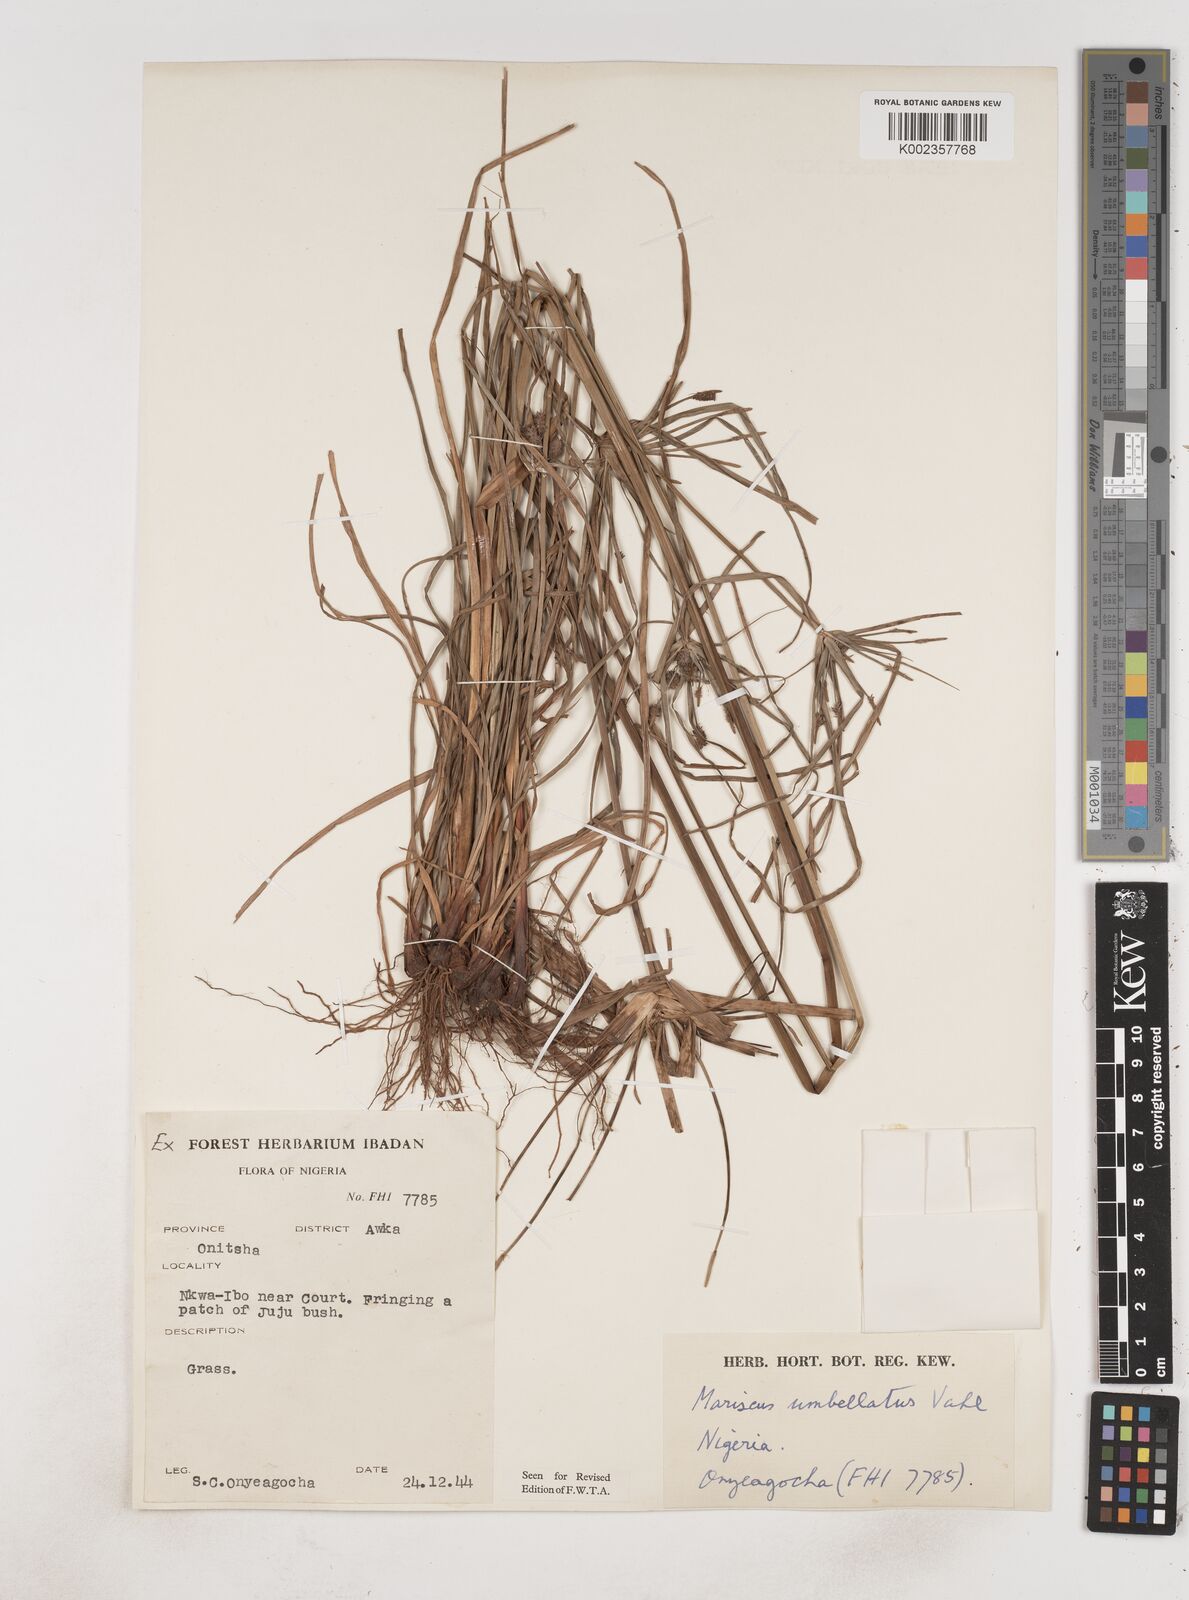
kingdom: Plantae
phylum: Tracheophyta
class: Liliopsida
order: Poales
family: Cyperaceae
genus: Cyperus
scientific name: Cyperus sublimis
